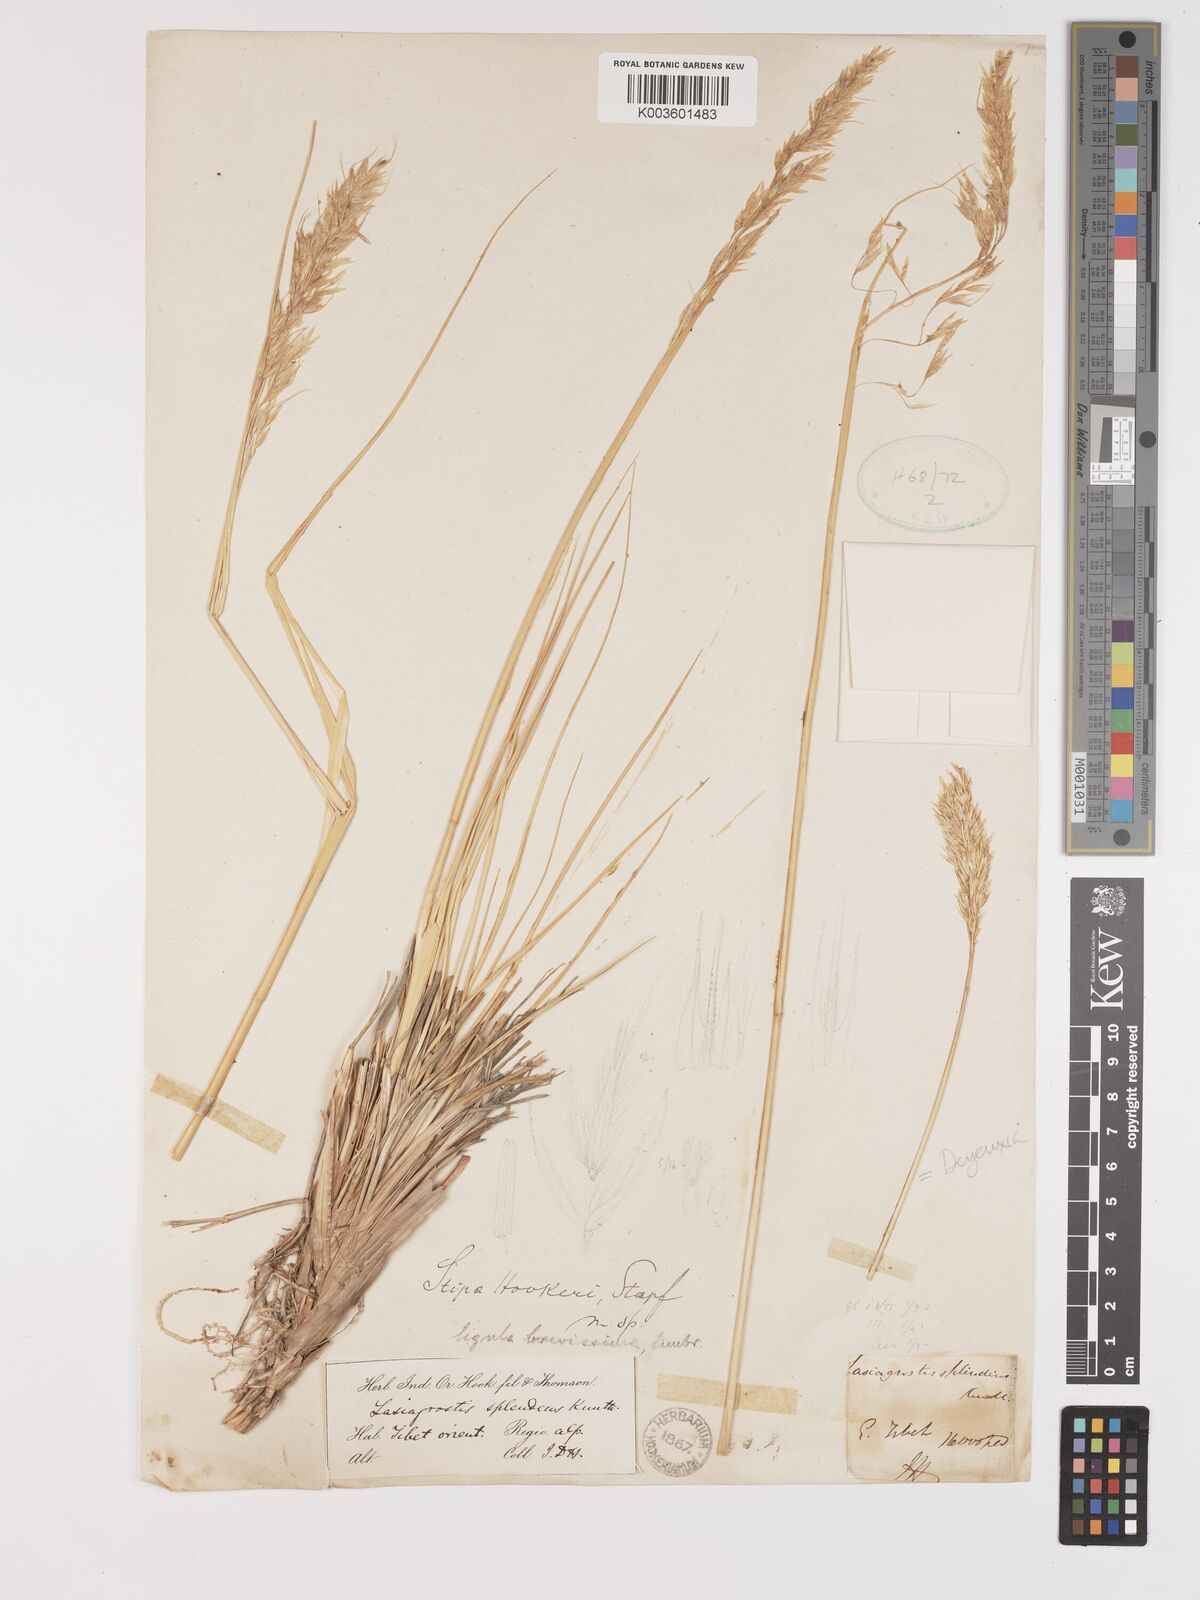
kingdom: Plantae
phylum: Tracheophyta
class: Liliopsida
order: Poales
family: Poaceae
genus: Trikeraia
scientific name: Trikeraia hookeri
